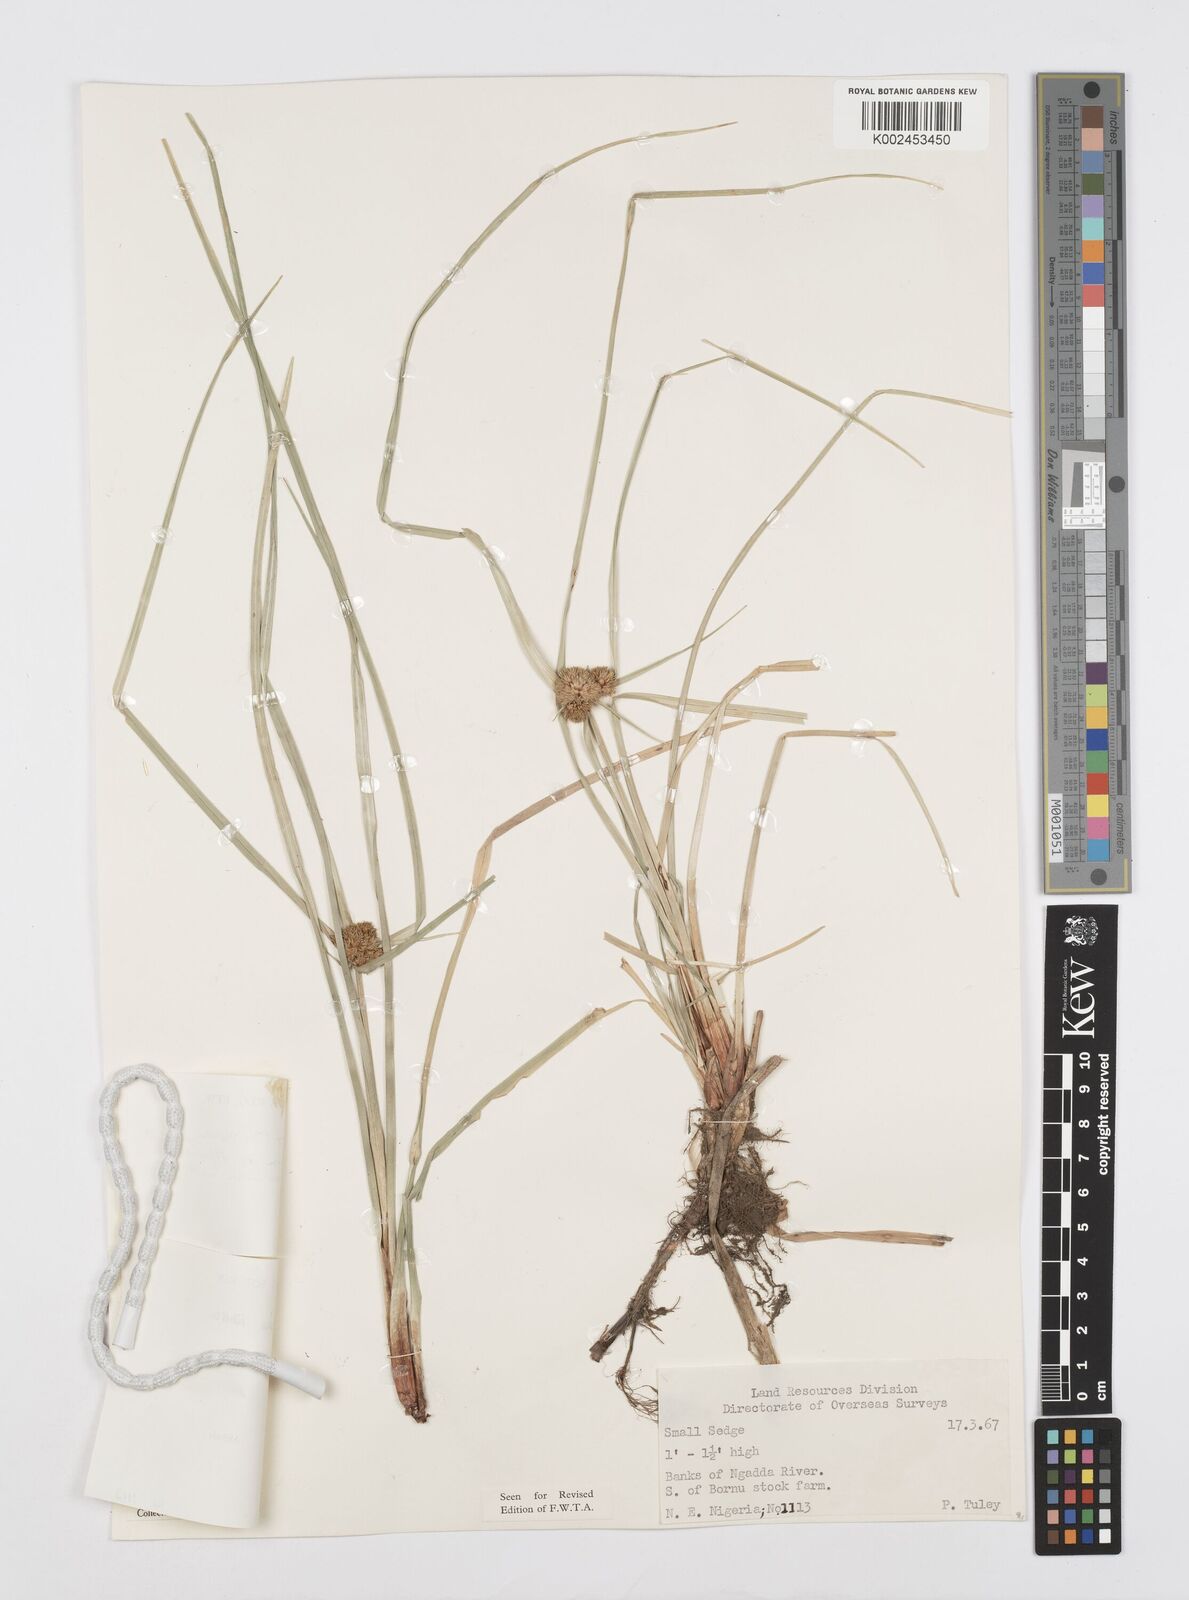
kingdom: Plantae
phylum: Tracheophyta
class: Liliopsida
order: Poales
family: Cyperaceae
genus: Cyperus
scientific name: Cyperus elegans
